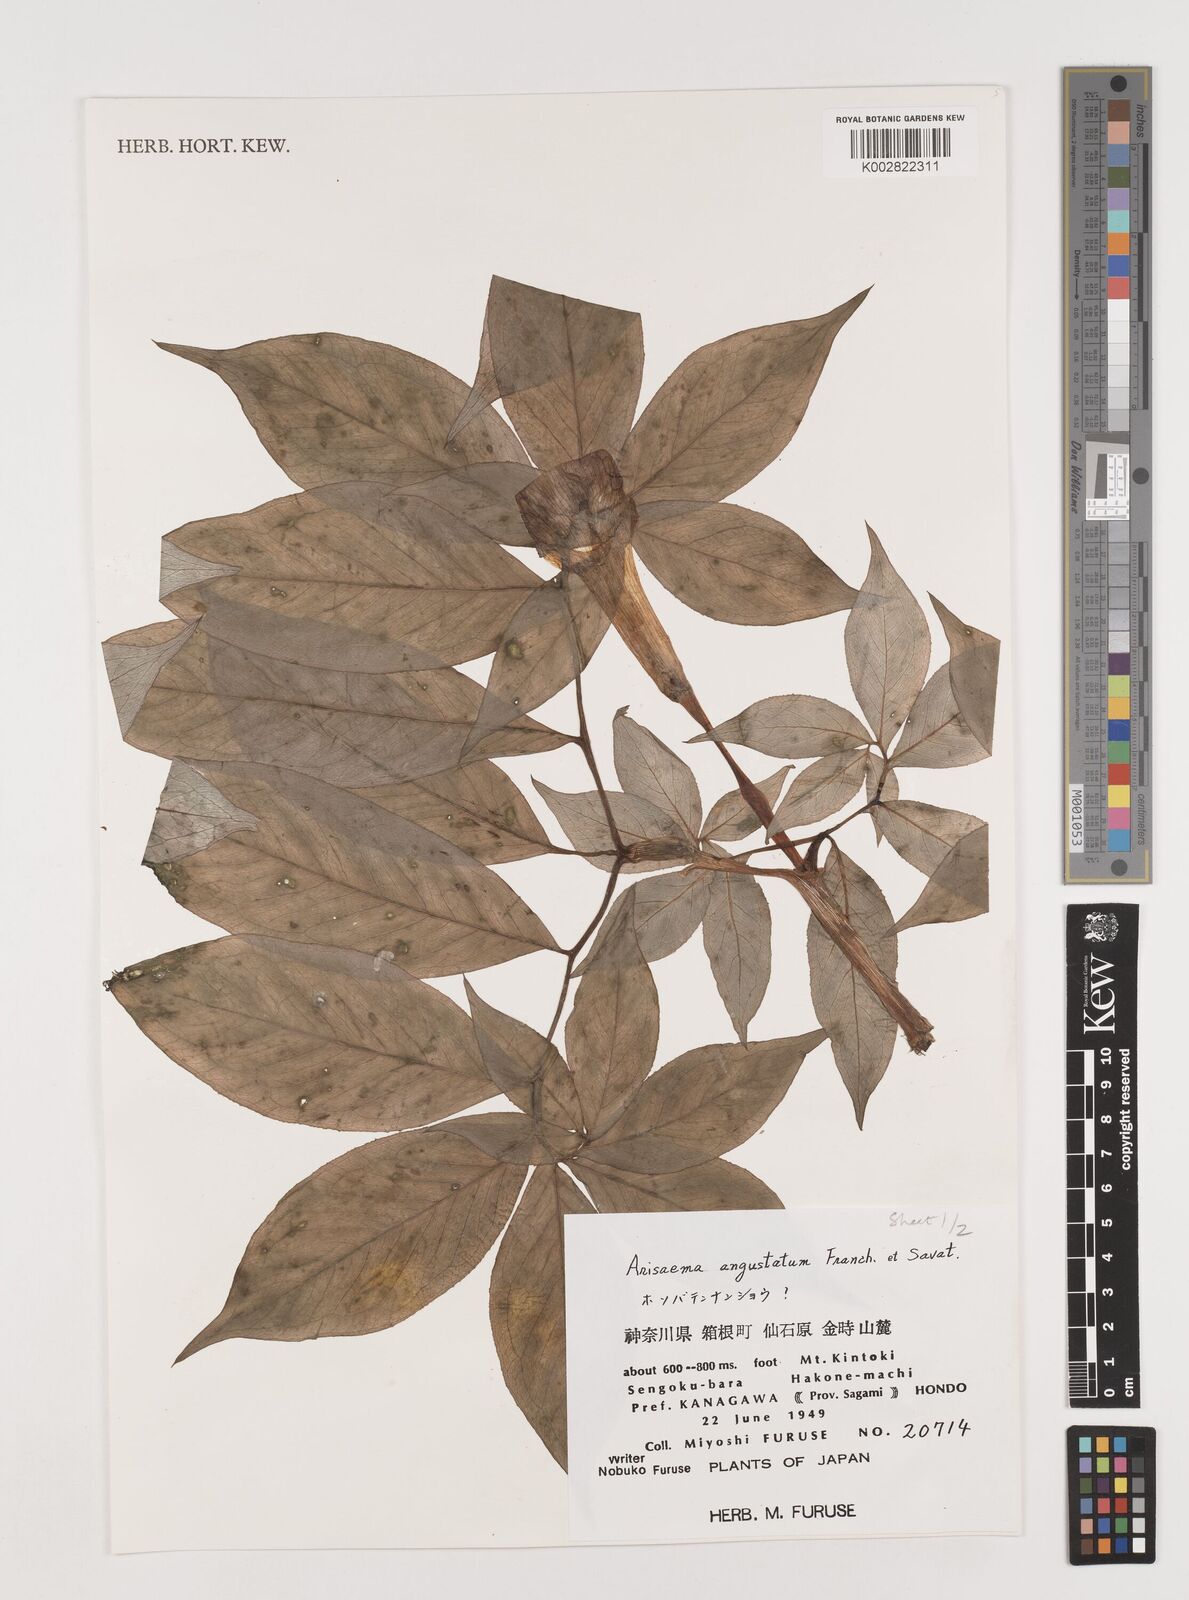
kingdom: Plantae
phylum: Tracheophyta
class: Liliopsida
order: Alismatales
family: Araceae
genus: Arisaema
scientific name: Arisaema angustatum
